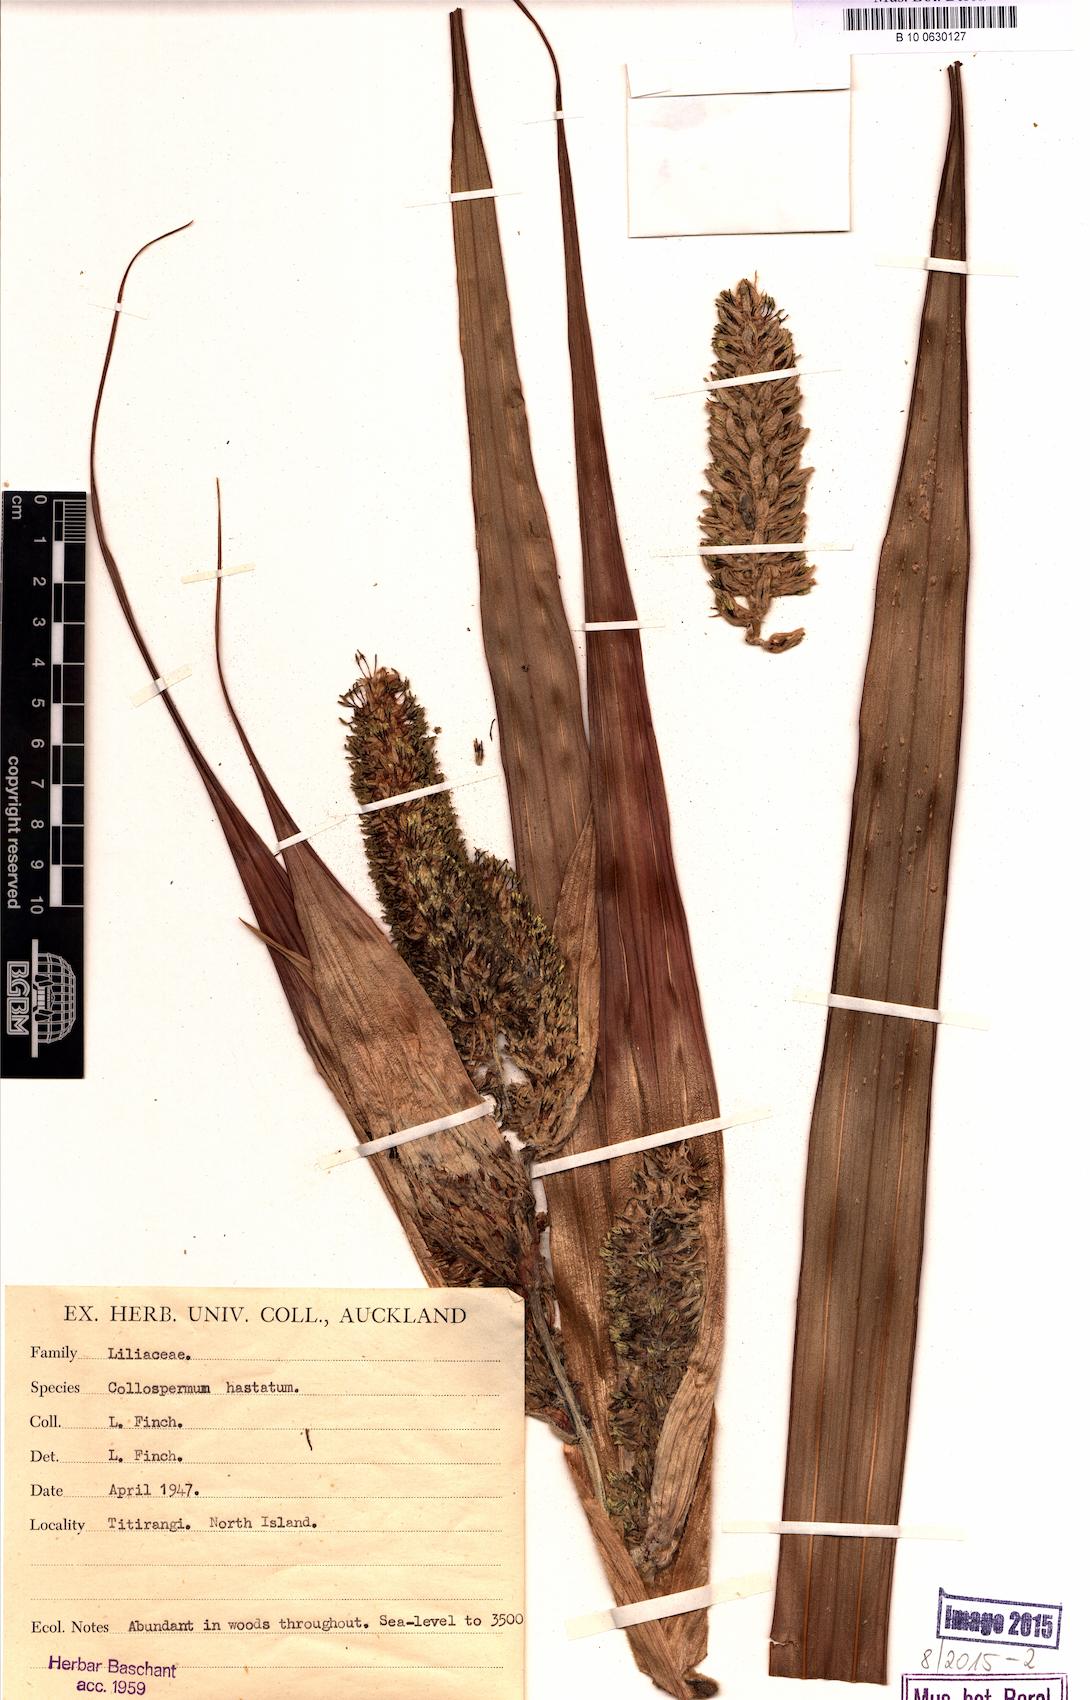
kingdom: Plantae
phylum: Tracheophyta
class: Liliopsida
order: Asparagales
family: Asteliaceae
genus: Astelia
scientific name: Astelia hastata
